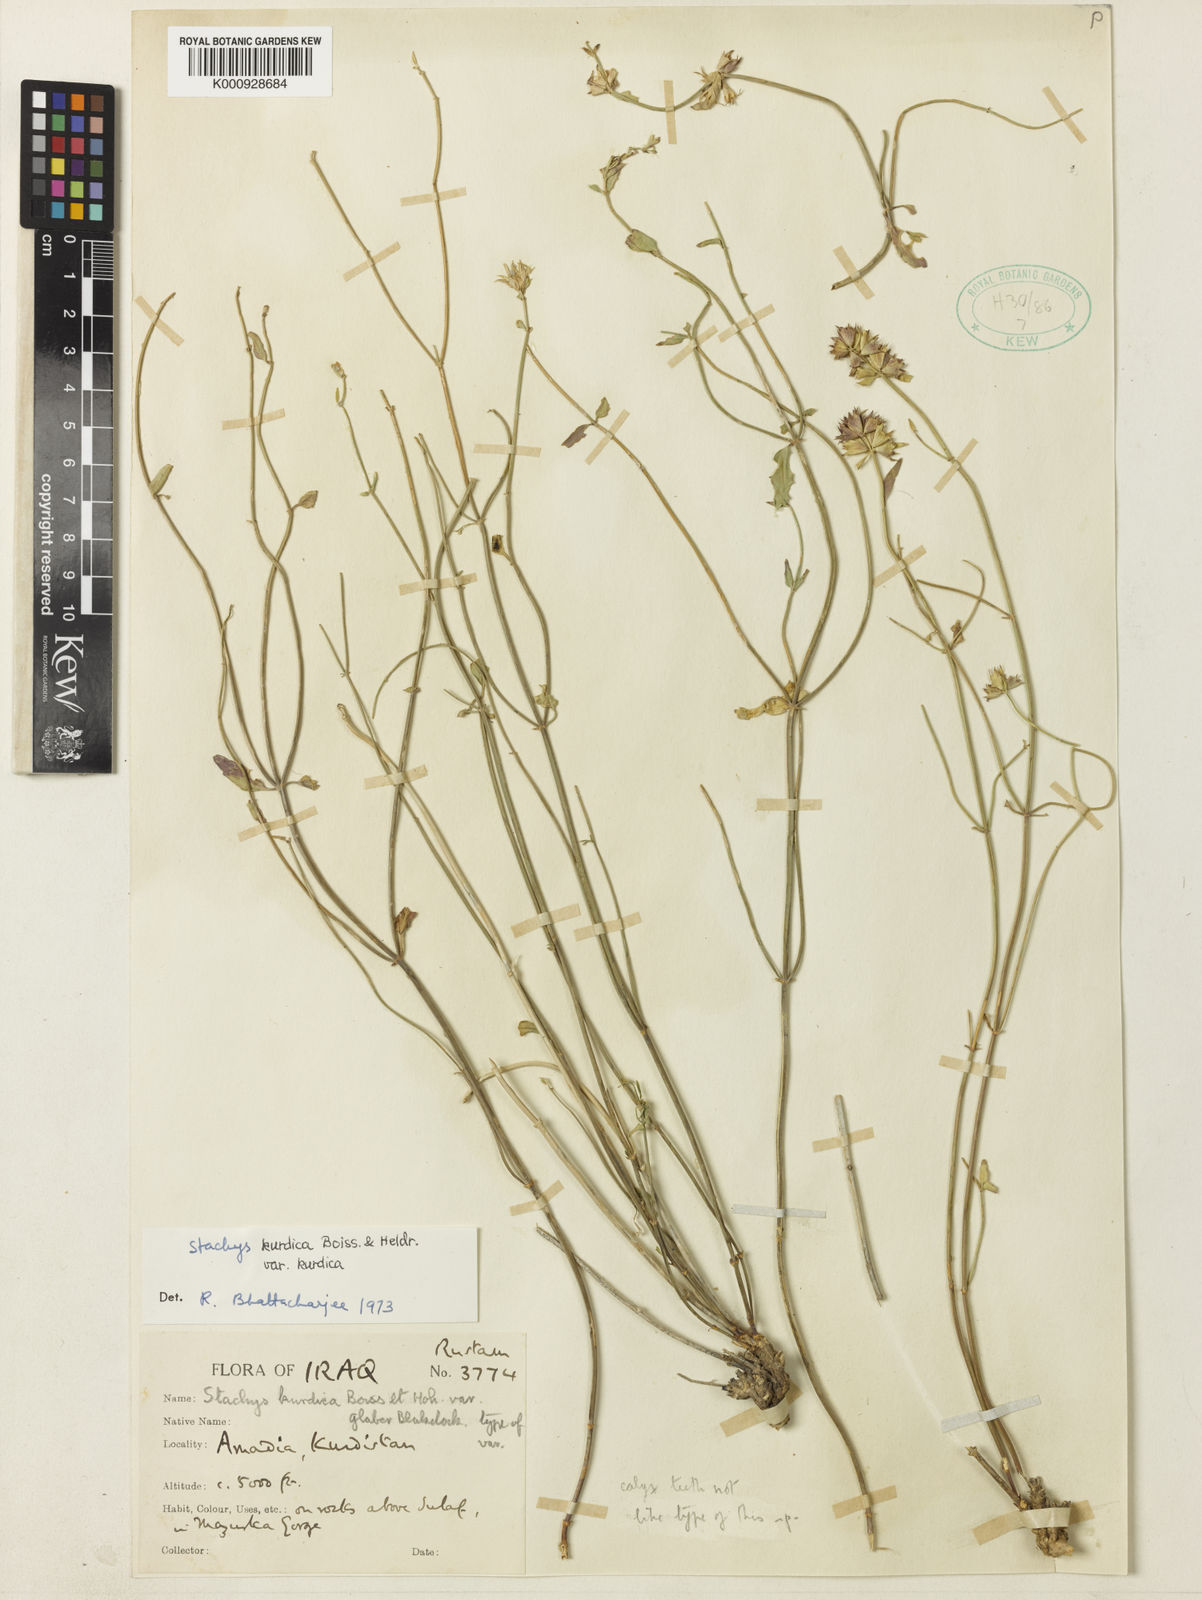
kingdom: Plantae
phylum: Tracheophyta
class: Magnoliopsida
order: Lamiales
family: Lamiaceae
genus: Stachys
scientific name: Stachys kurdica
